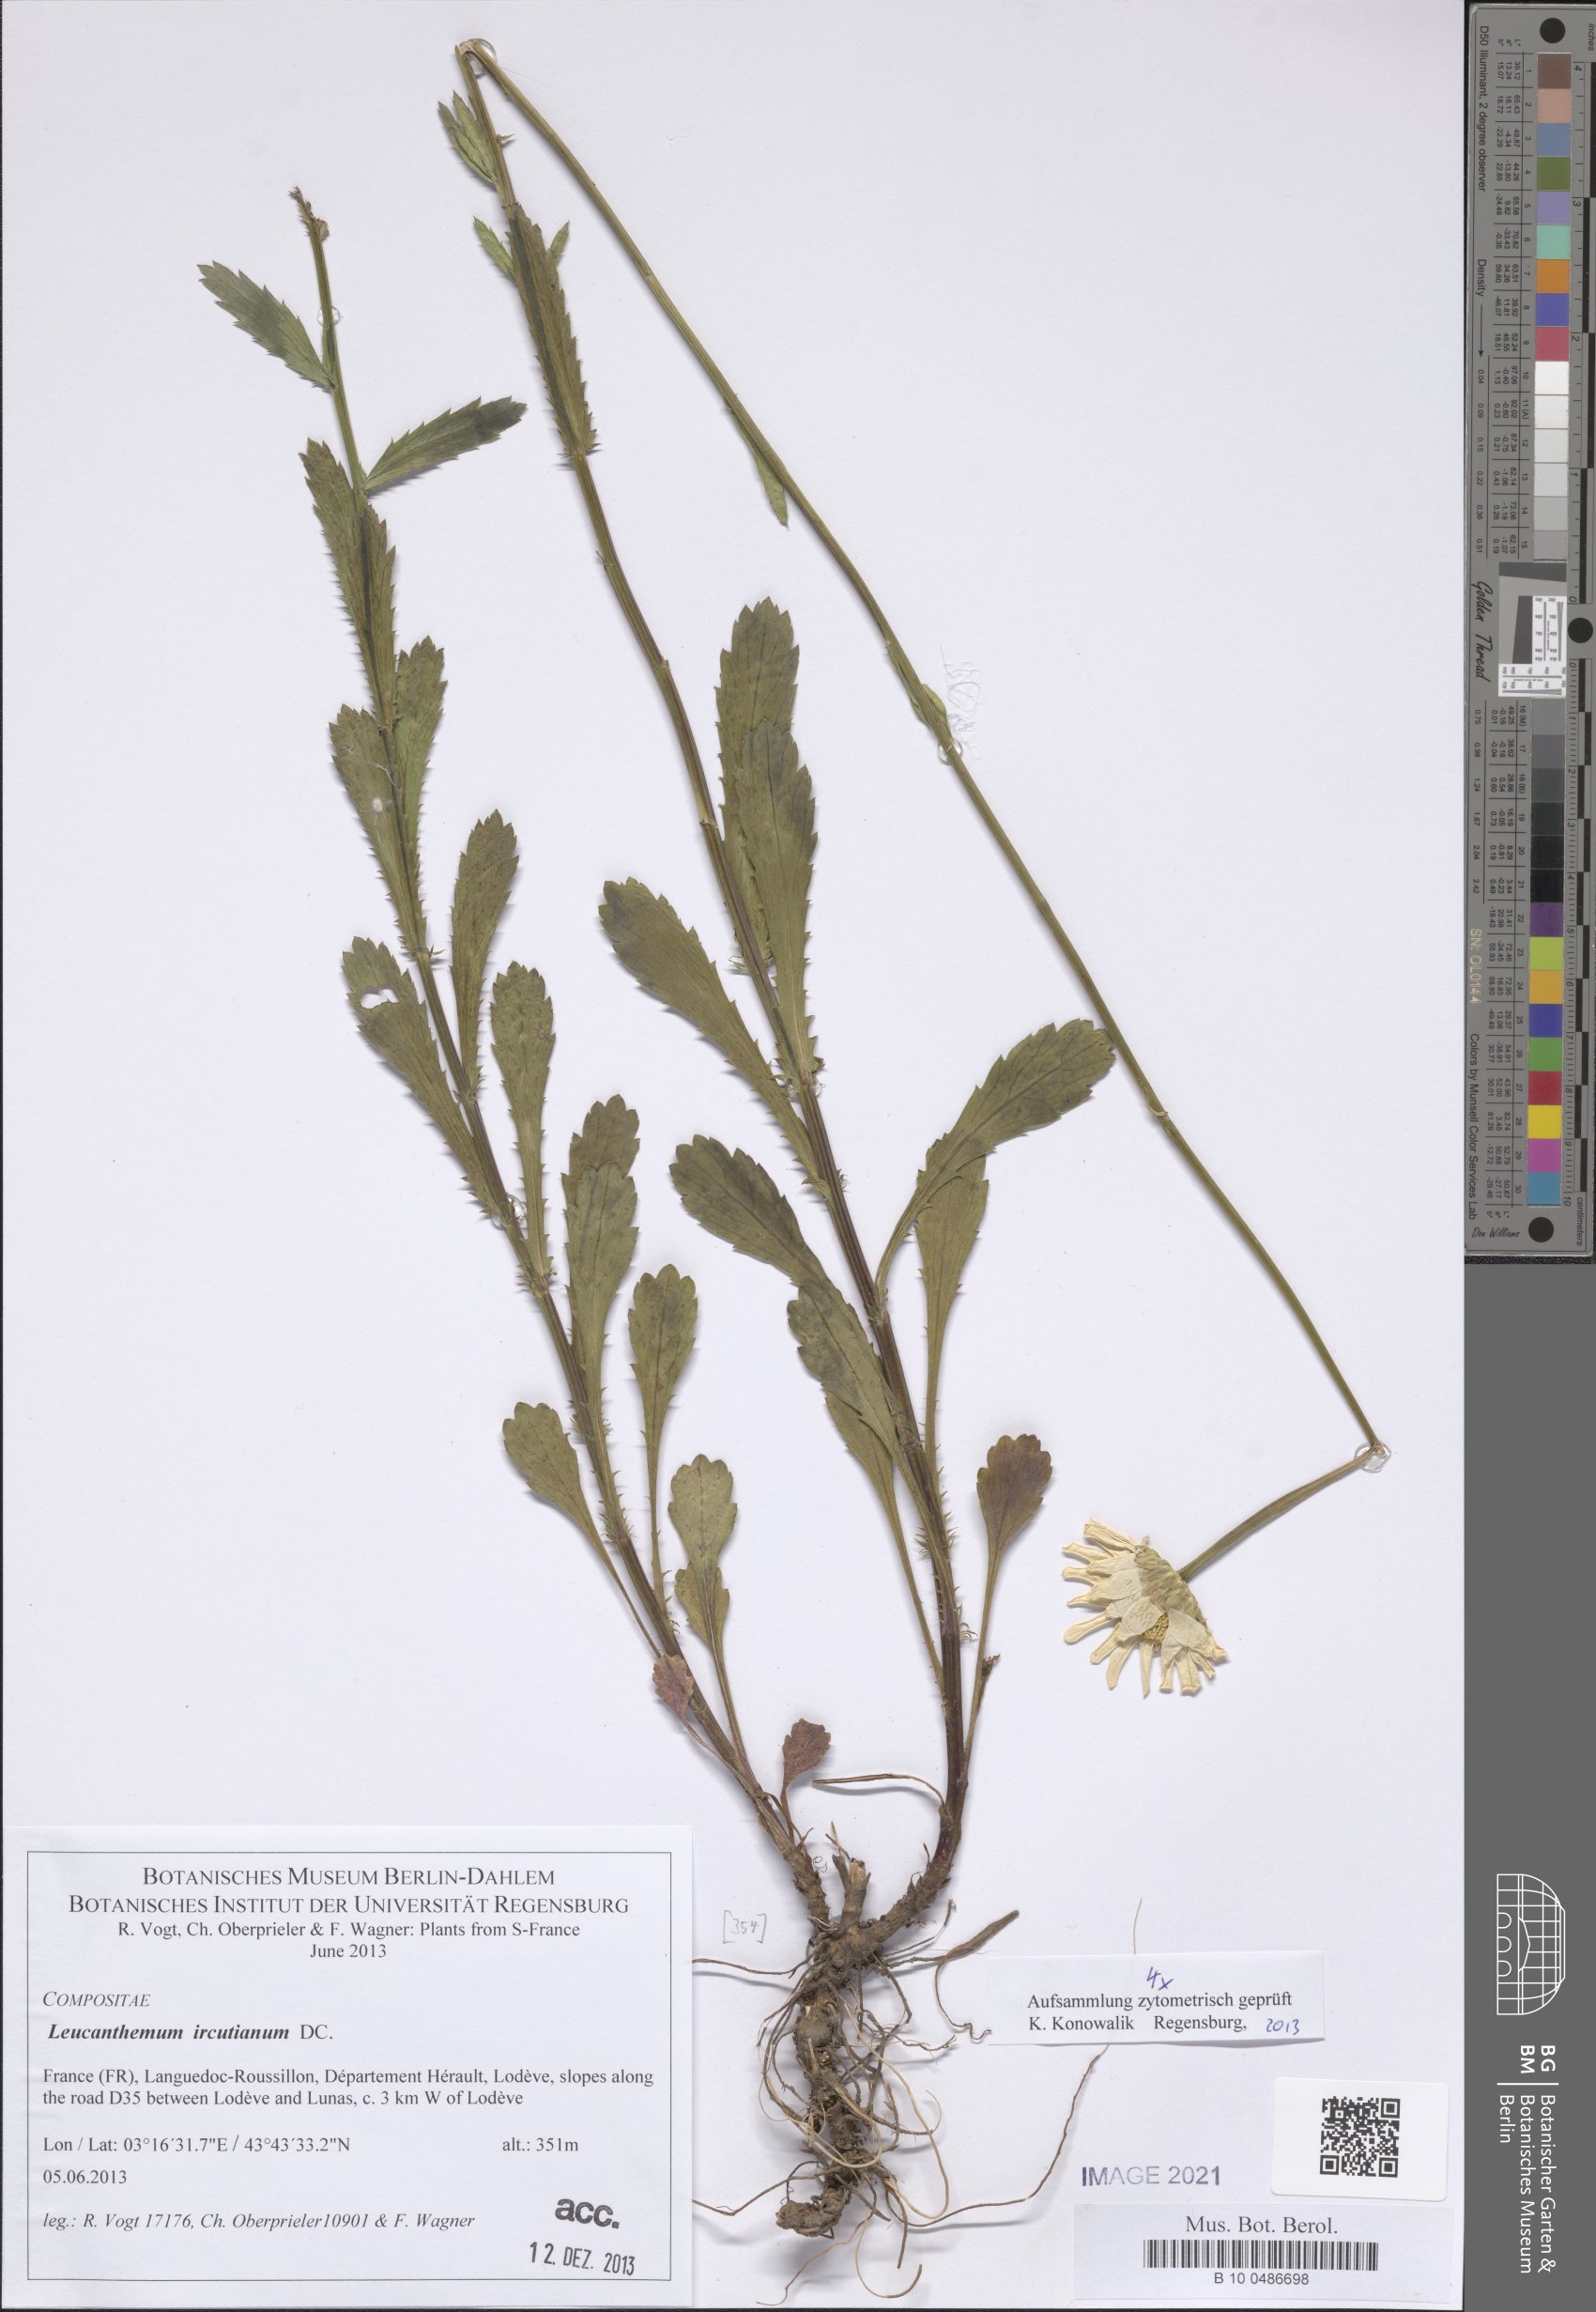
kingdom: Plantae
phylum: Tracheophyta
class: Magnoliopsida
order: Asterales
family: Asteraceae
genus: Leucanthemum
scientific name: Leucanthemum ircutianum
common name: Daisy
